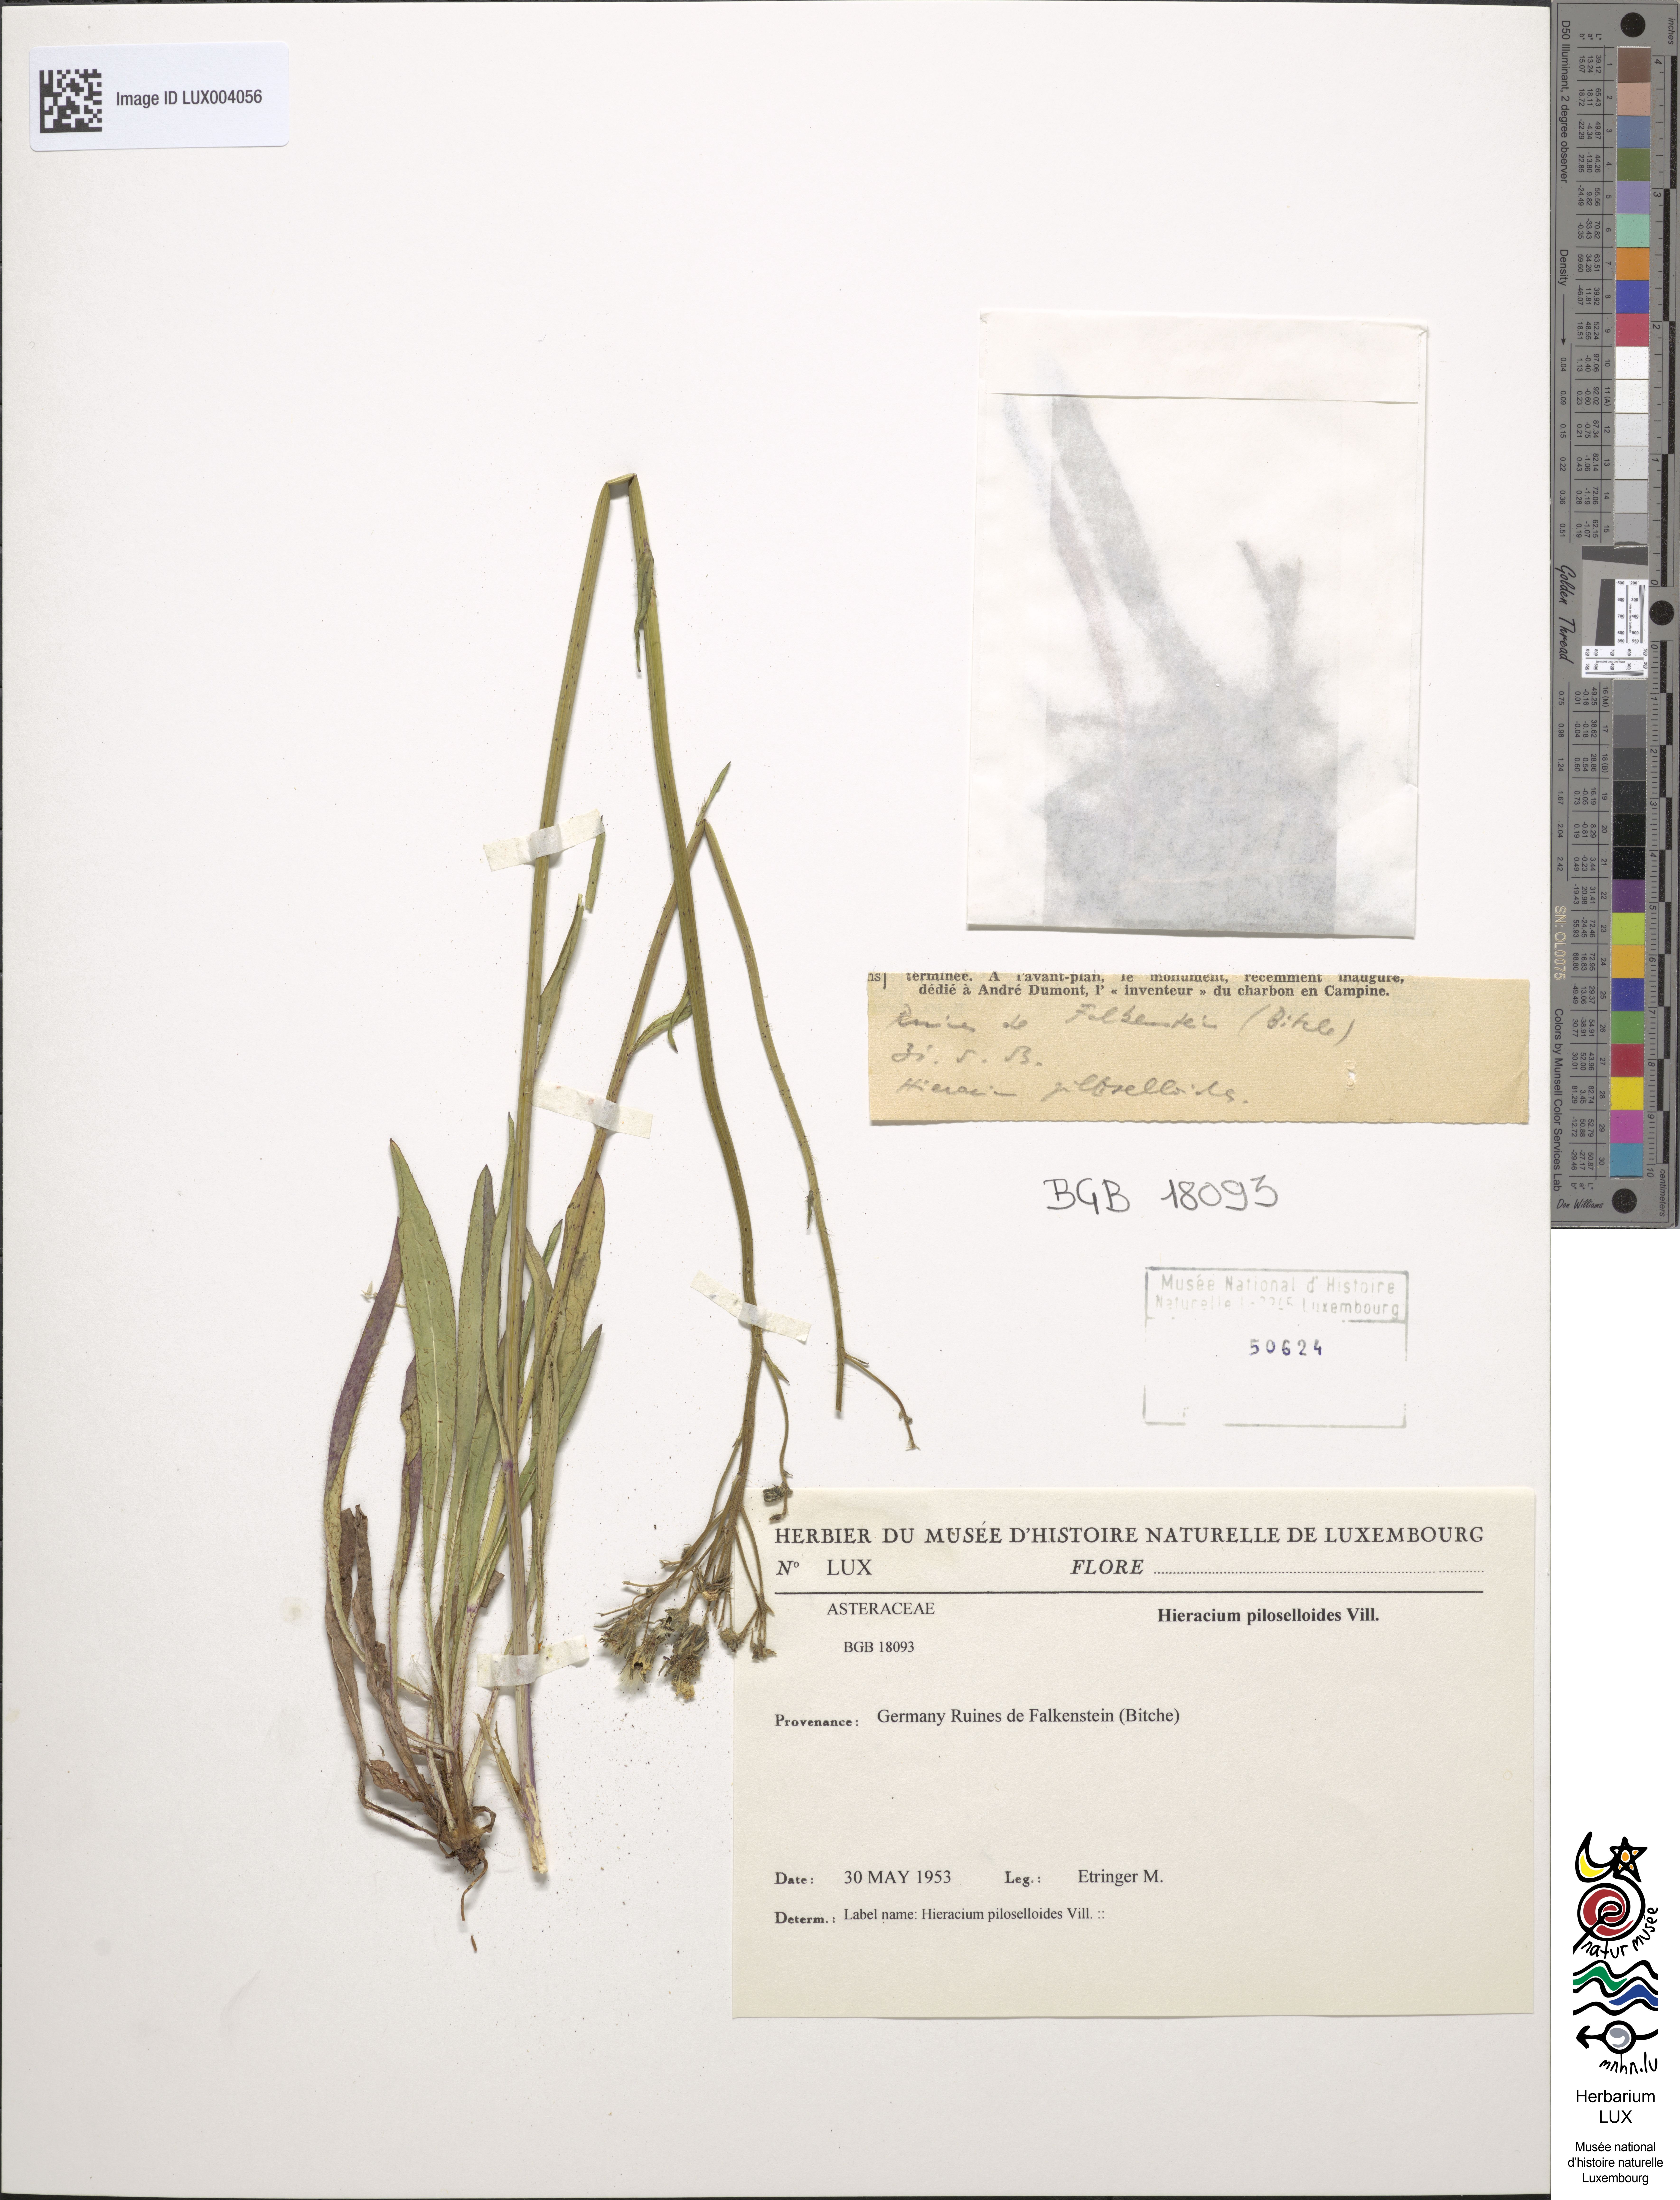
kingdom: Plantae
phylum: Tracheophyta
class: Magnoliopsida
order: Asterales
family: Asteraceae
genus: Pilosella
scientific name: Pilosella piloselloides
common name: Glaucous king-devil
